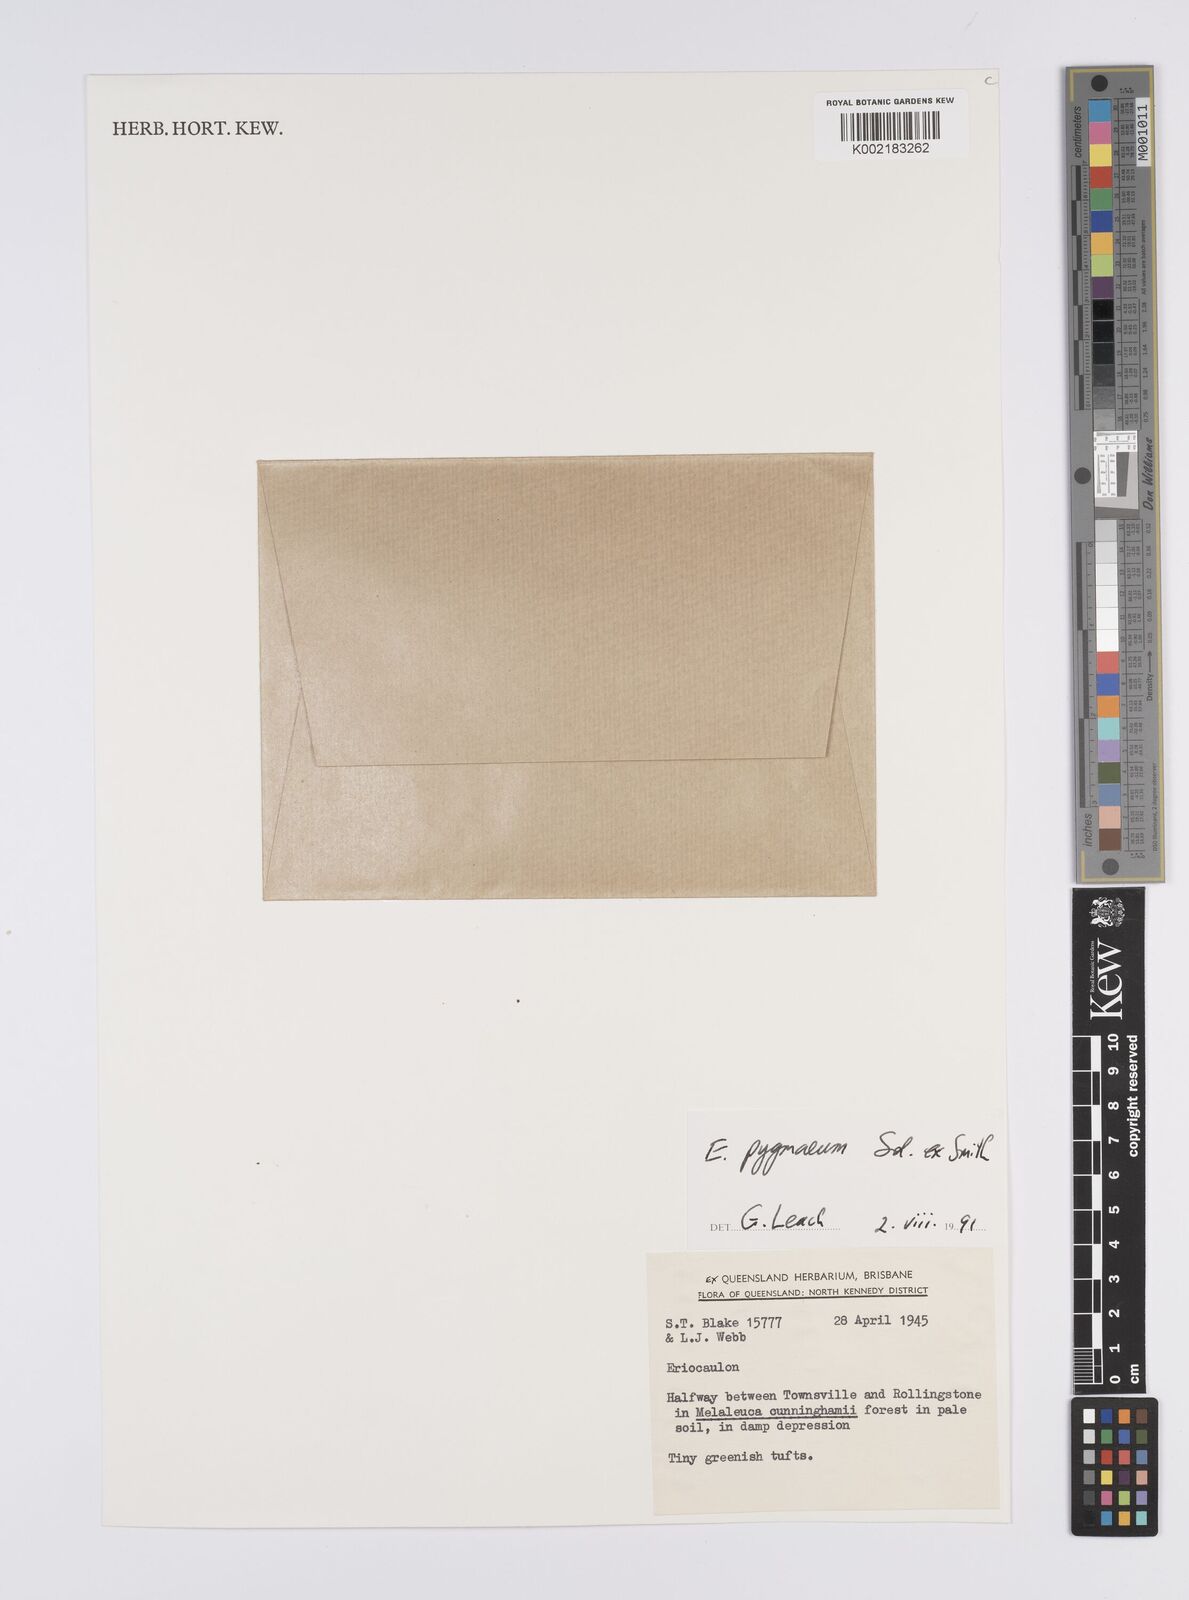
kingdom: Plantae
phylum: Tracheophyta
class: Liliopsida
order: Poales
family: Eriocaulaceae
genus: Paepalanthus
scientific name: Paepalanthus bifidus
